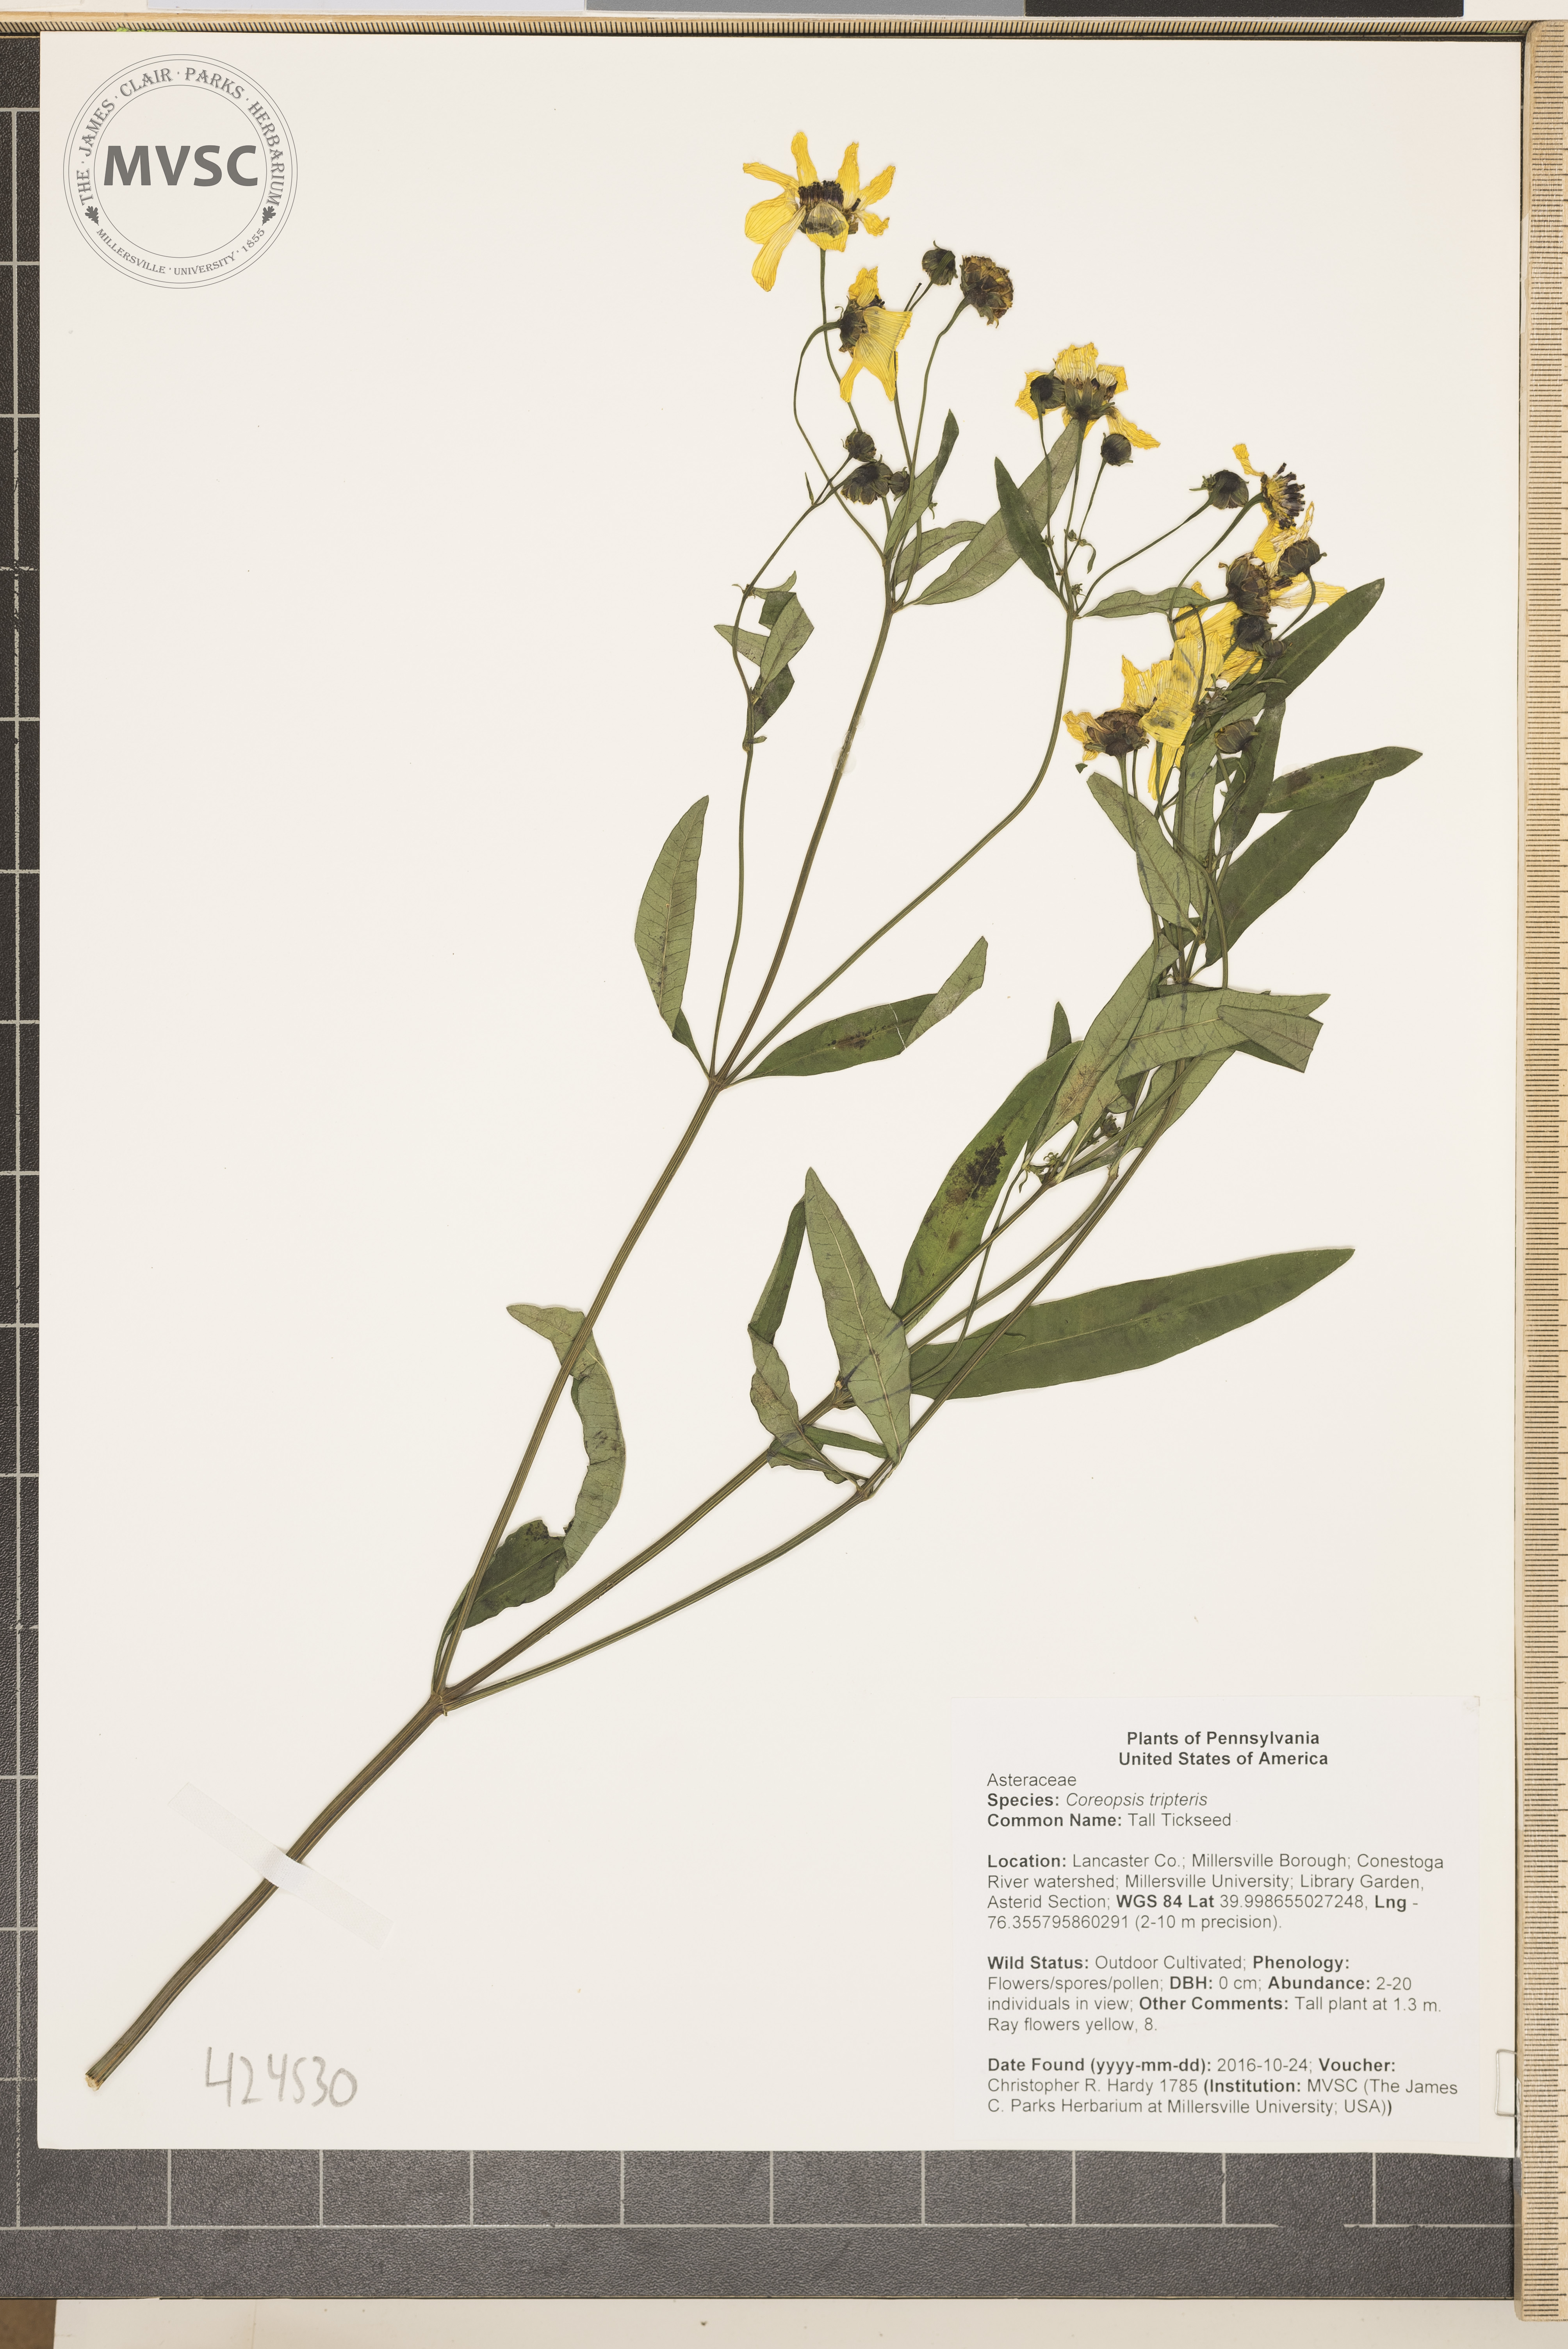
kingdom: Plantae
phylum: Tracheophyta
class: Magnoliopsida
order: Asterales
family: Asteraceae
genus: Coreopsis
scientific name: Coreopsis tripteris
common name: Tall Tickseed
